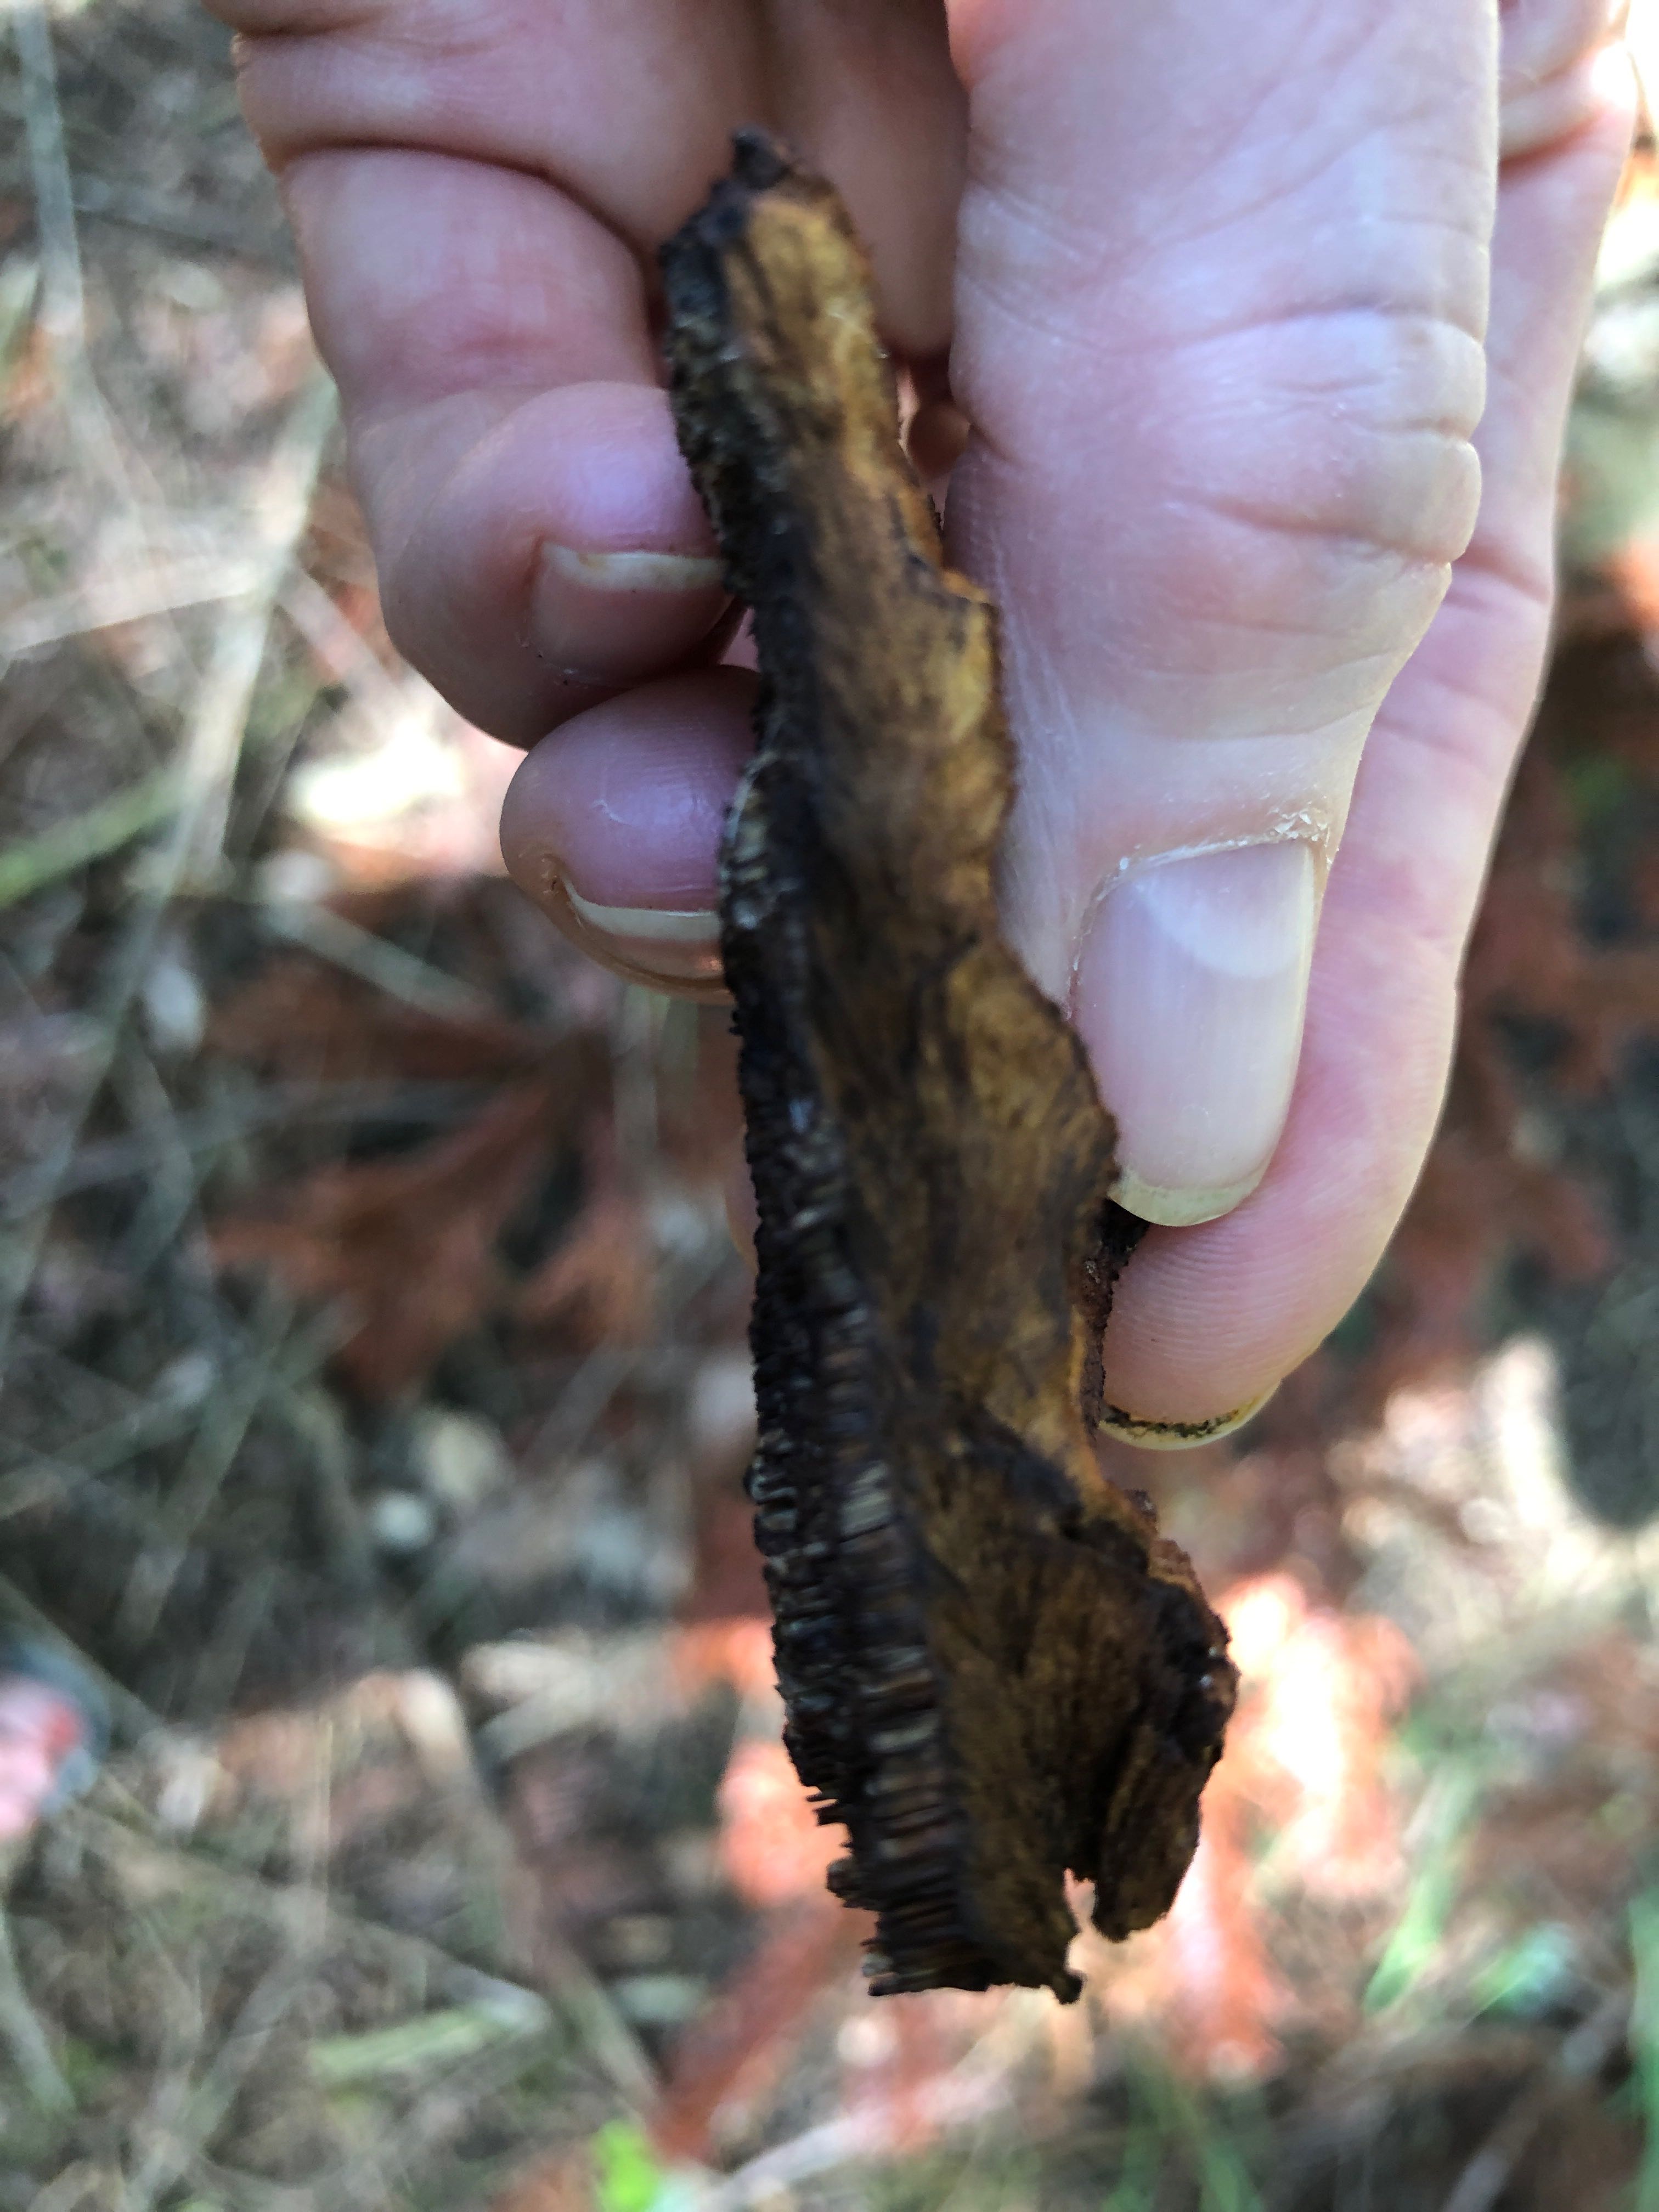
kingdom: Fungi
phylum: Basidiomycota
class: Agaricomycetes
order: Polyporales
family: Laetiporaceae
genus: Phaeolus
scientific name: Phaeolus schweinitzii
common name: brunporesvamp
